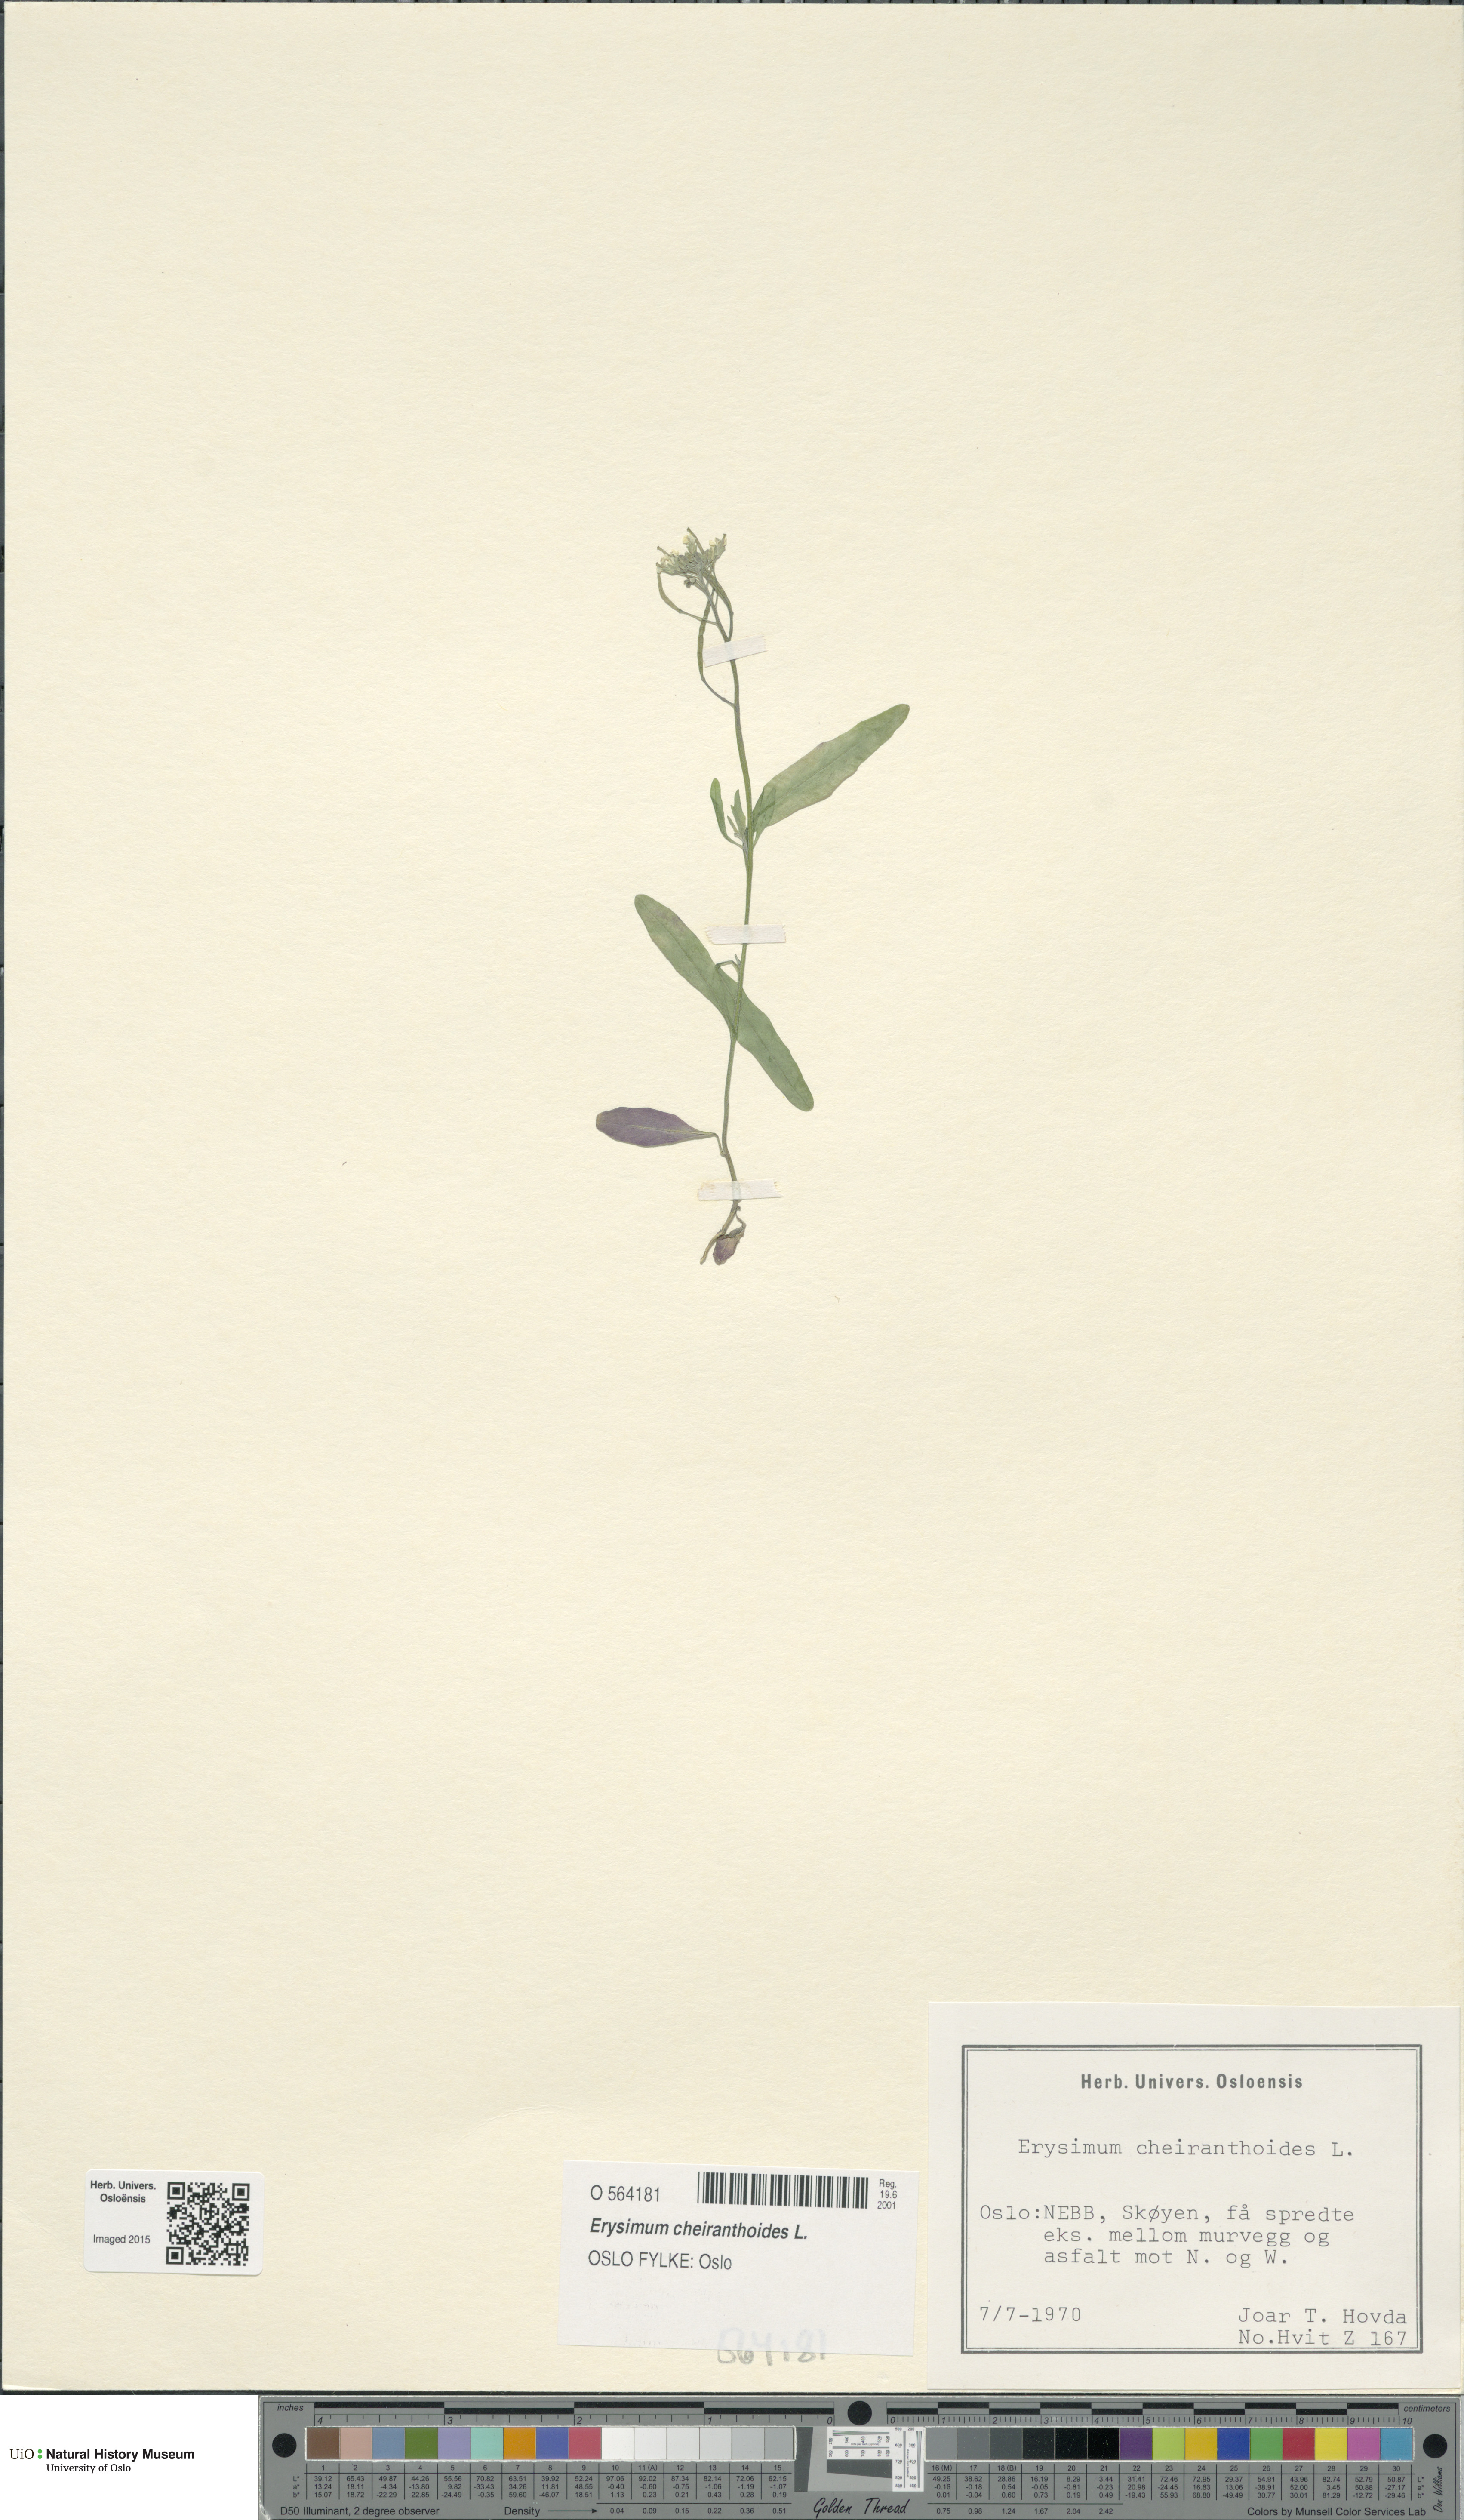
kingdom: Plantae
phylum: Tracheophyta
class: Magnoliopsida
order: Brassicales
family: Brassicaceae
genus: Erysimum
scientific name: Erysimum cheiranthoides
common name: Treacle mustard
